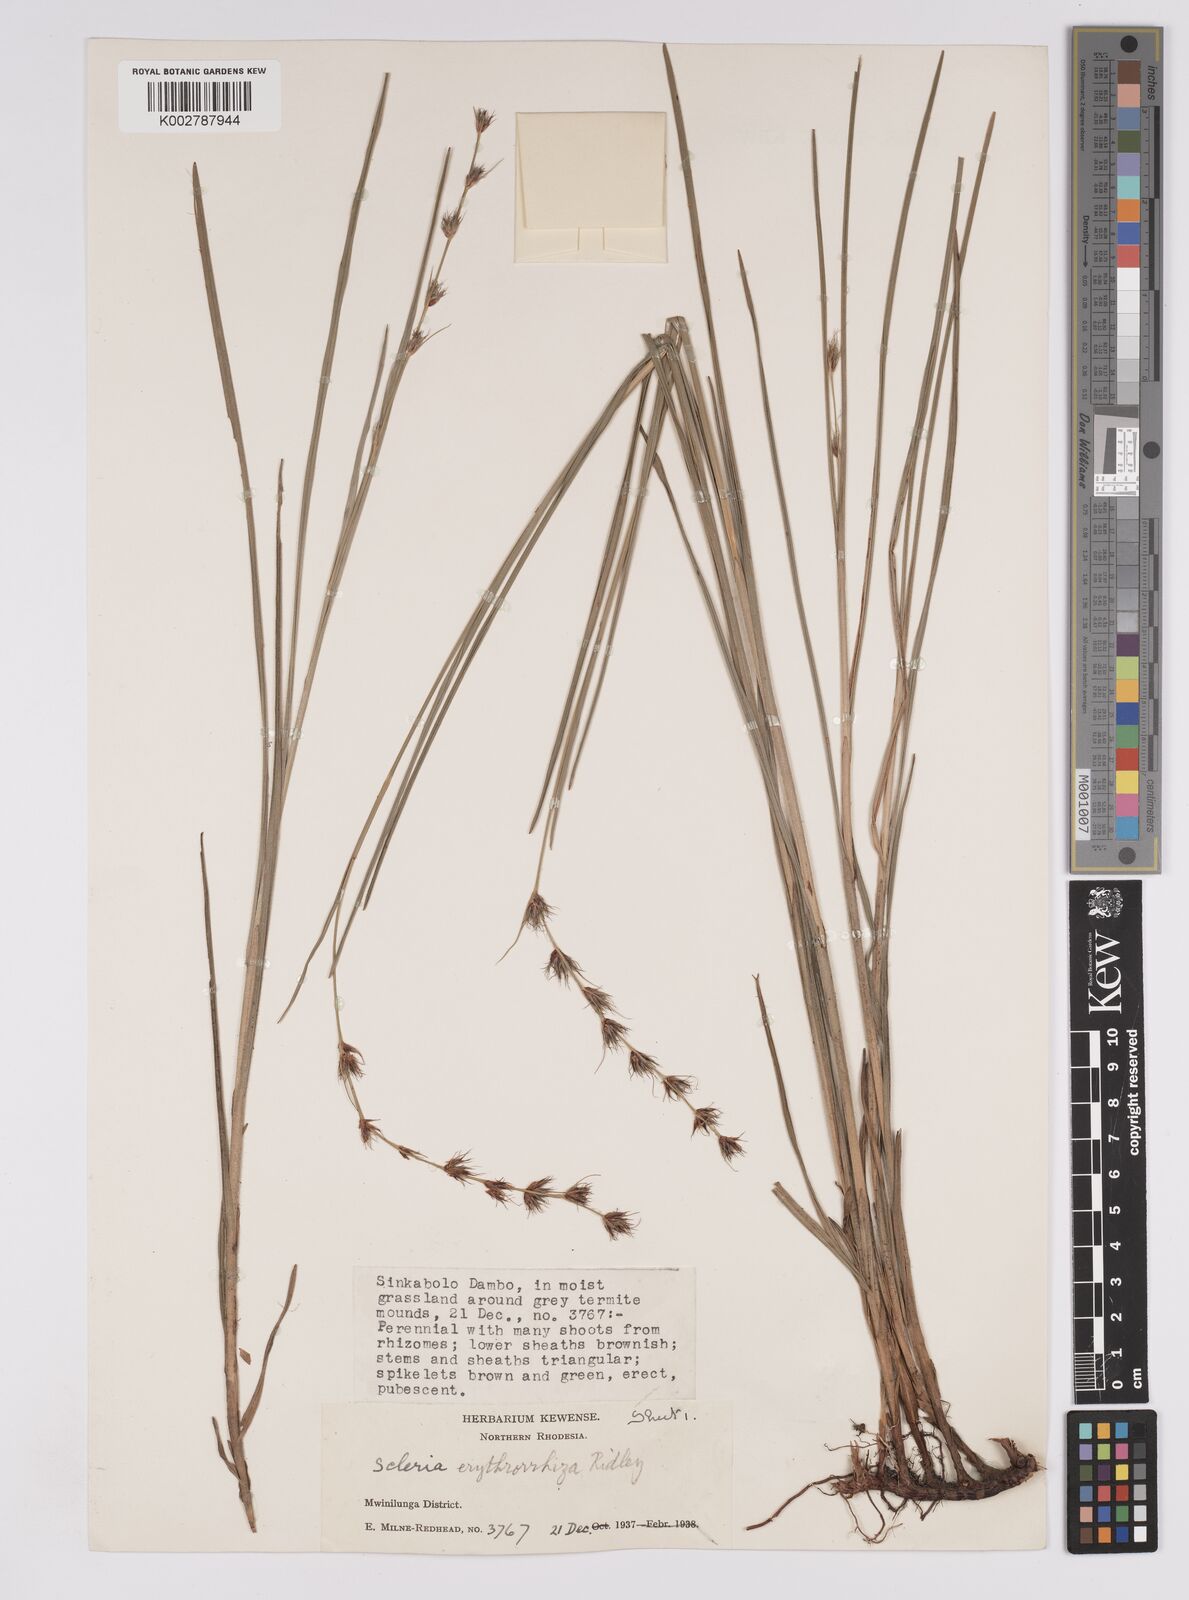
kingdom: Plantae
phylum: Tracheophyta
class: Liliopsida
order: Poales
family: Cyperaceae
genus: Scleria
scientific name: Scleria erythrorrhiza
